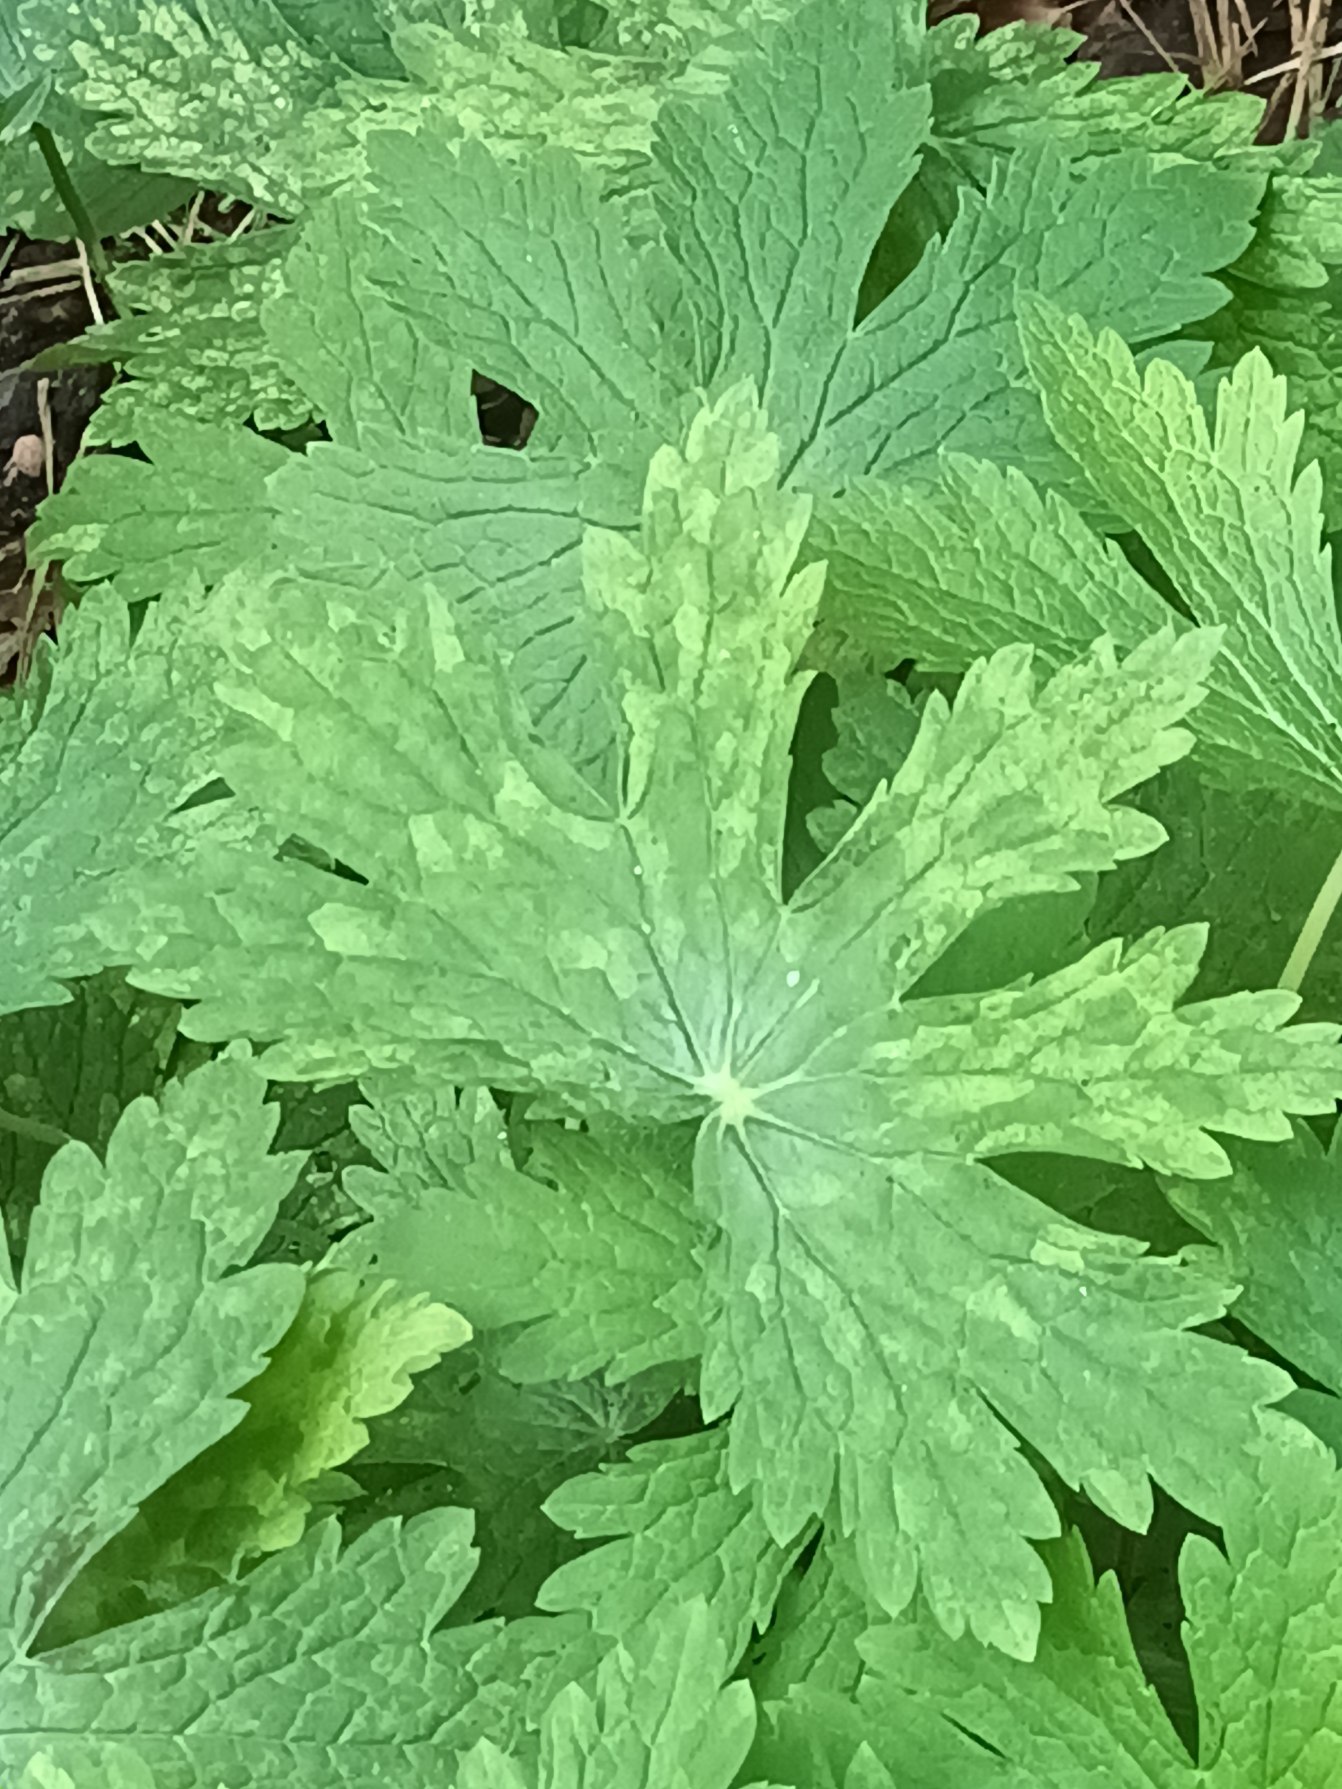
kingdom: Plantae
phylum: Tracheophyta
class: Magnoliopsida
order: Geraniales
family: Geraniaceae
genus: Geranium
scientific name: Geranium phaeum
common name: Bølgekronet storkenæb
